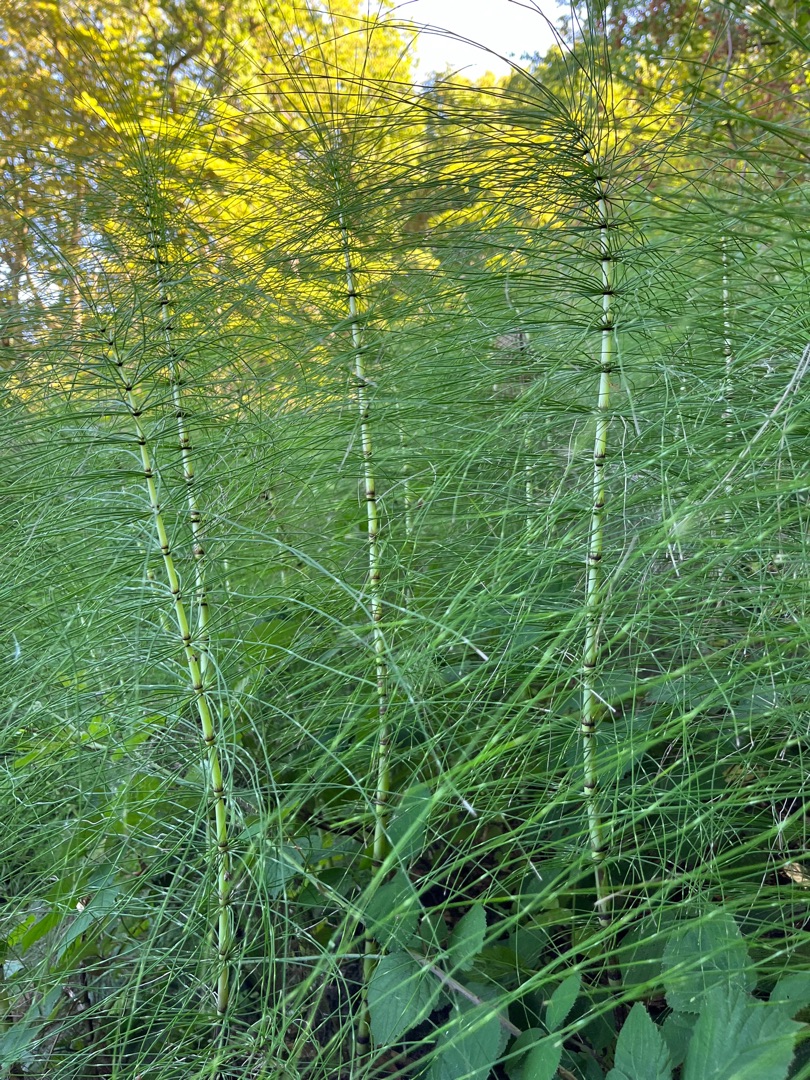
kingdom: Plantae
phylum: Tracheophyta
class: Polypodiopsida
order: Equisetales
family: Equisetaceae
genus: Equisetum
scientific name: Equisetum telmateia
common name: Elfenbens-padderok
